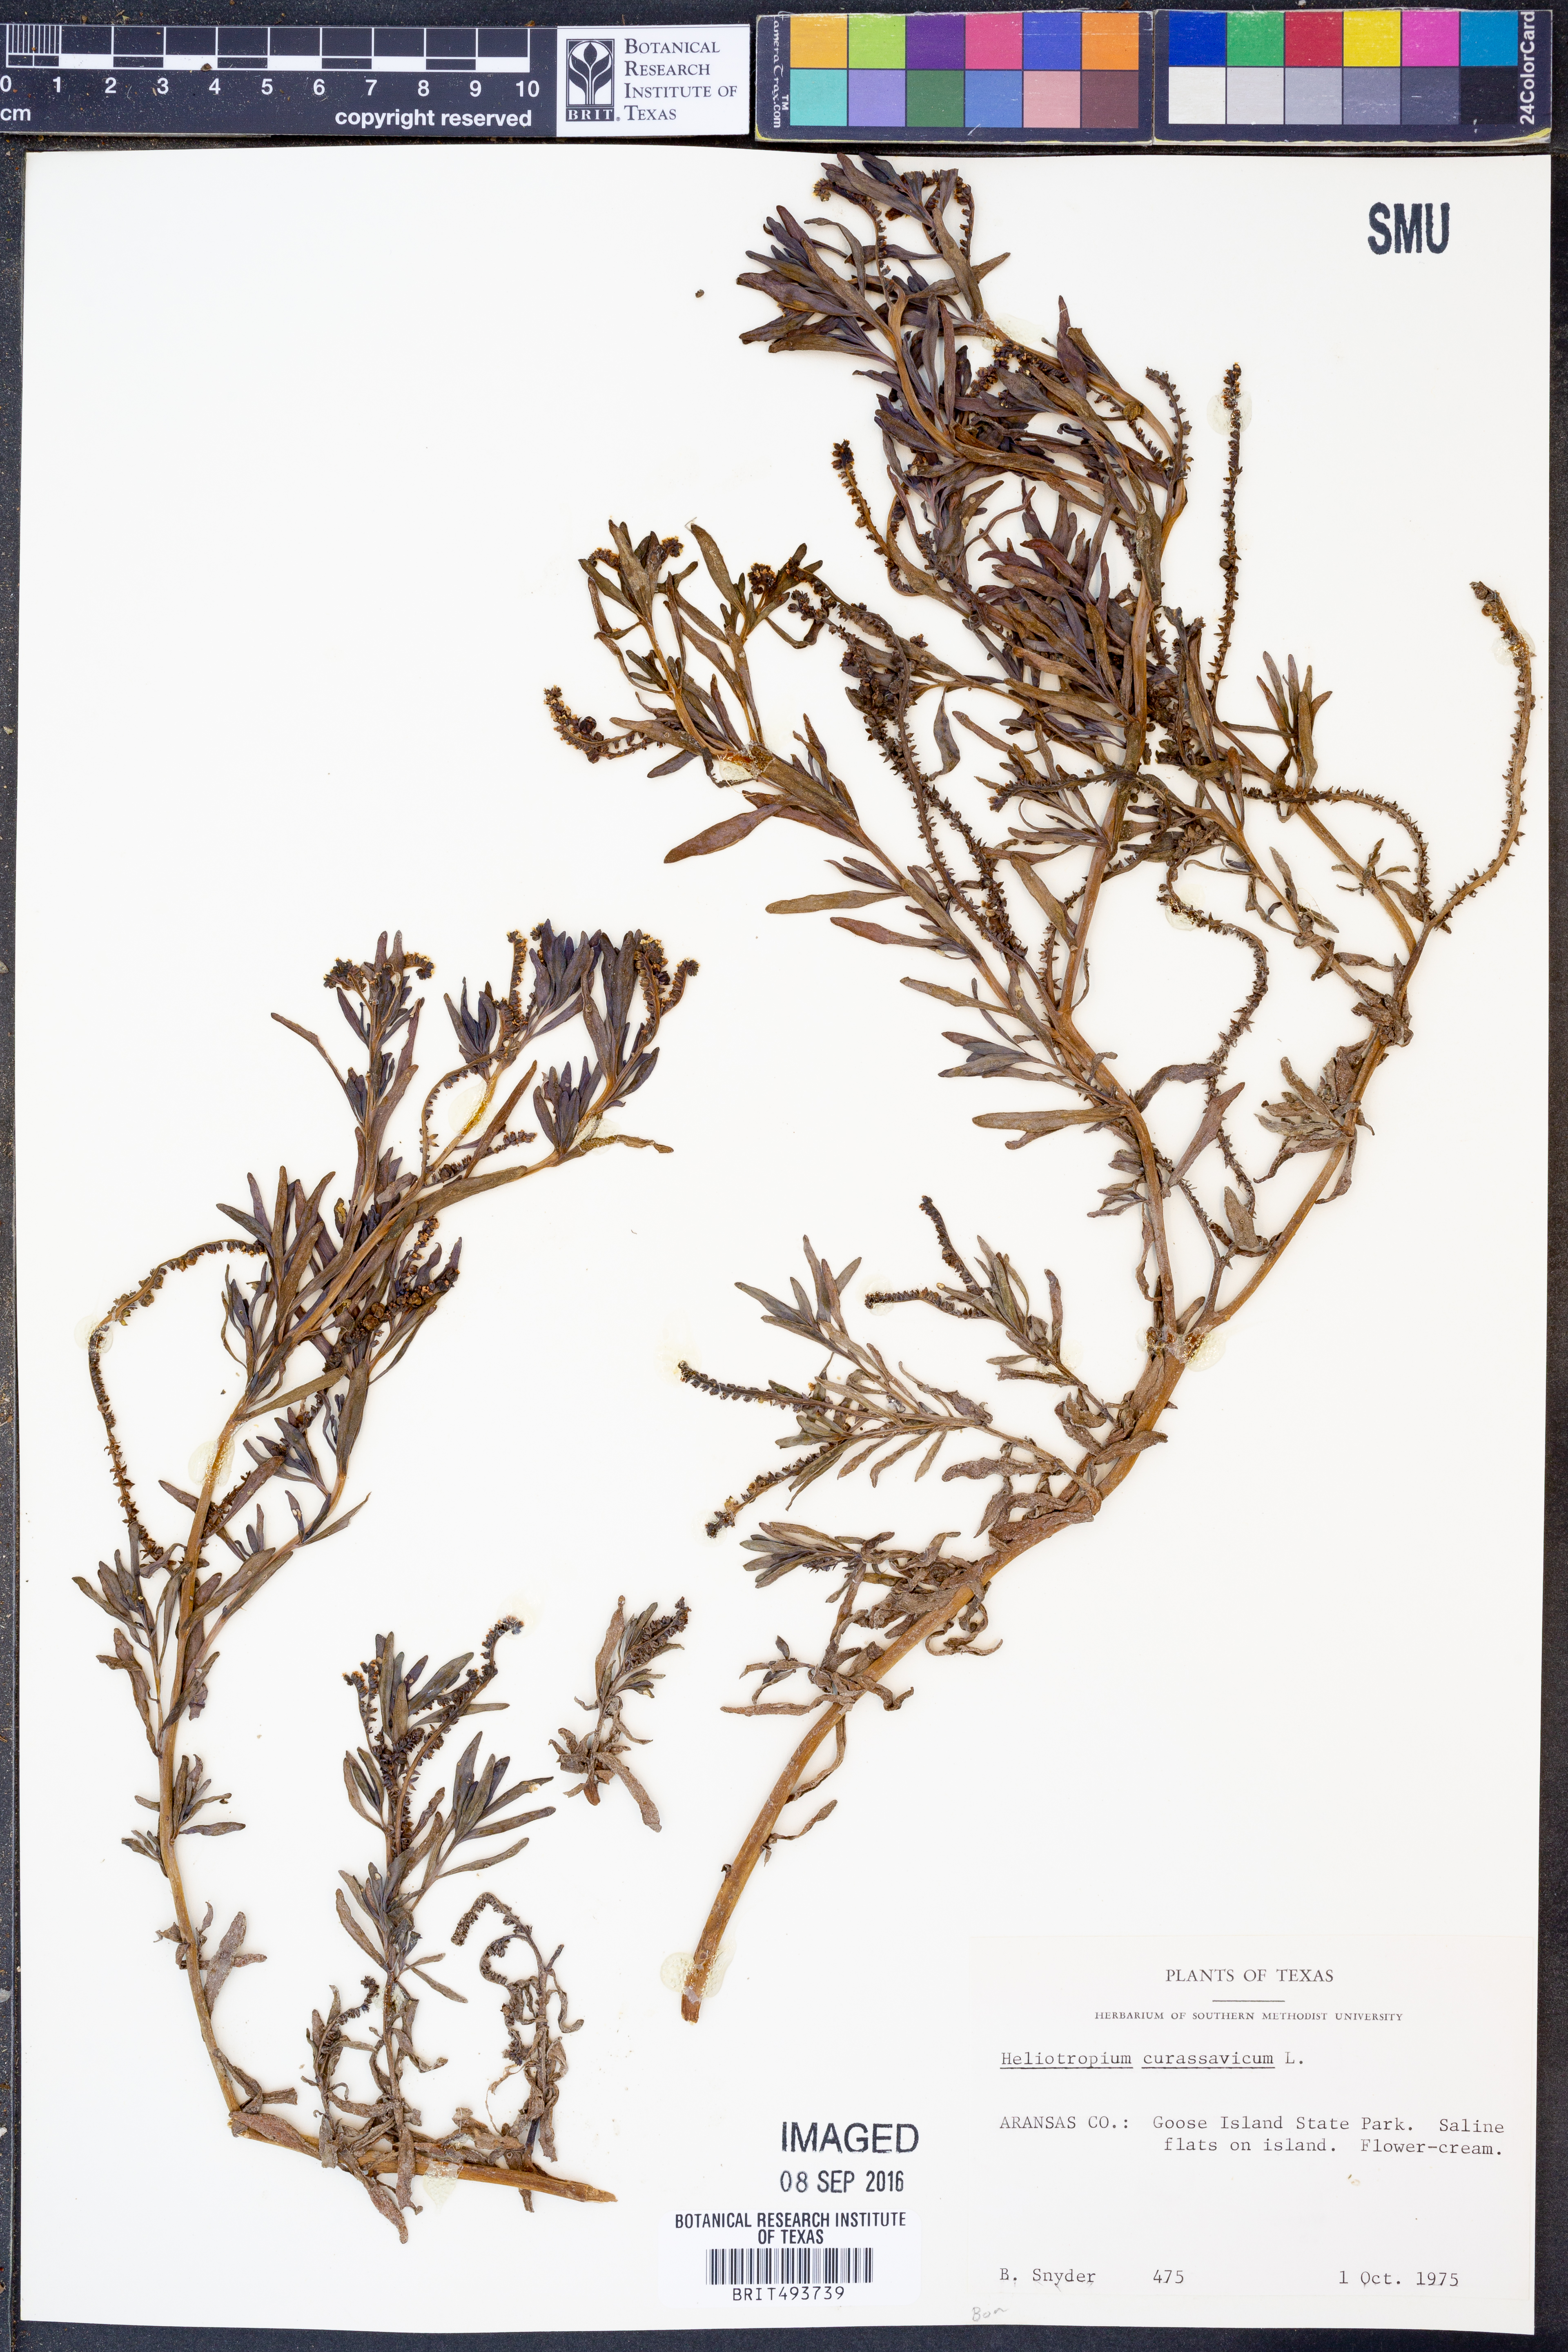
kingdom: Plantae
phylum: Tracheophyta
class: Magnoliopsida
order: Boraginales
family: Heliotropiaceae
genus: Heliotropium
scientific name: Heliotropium curassavicum
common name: Seaside heliotrope
